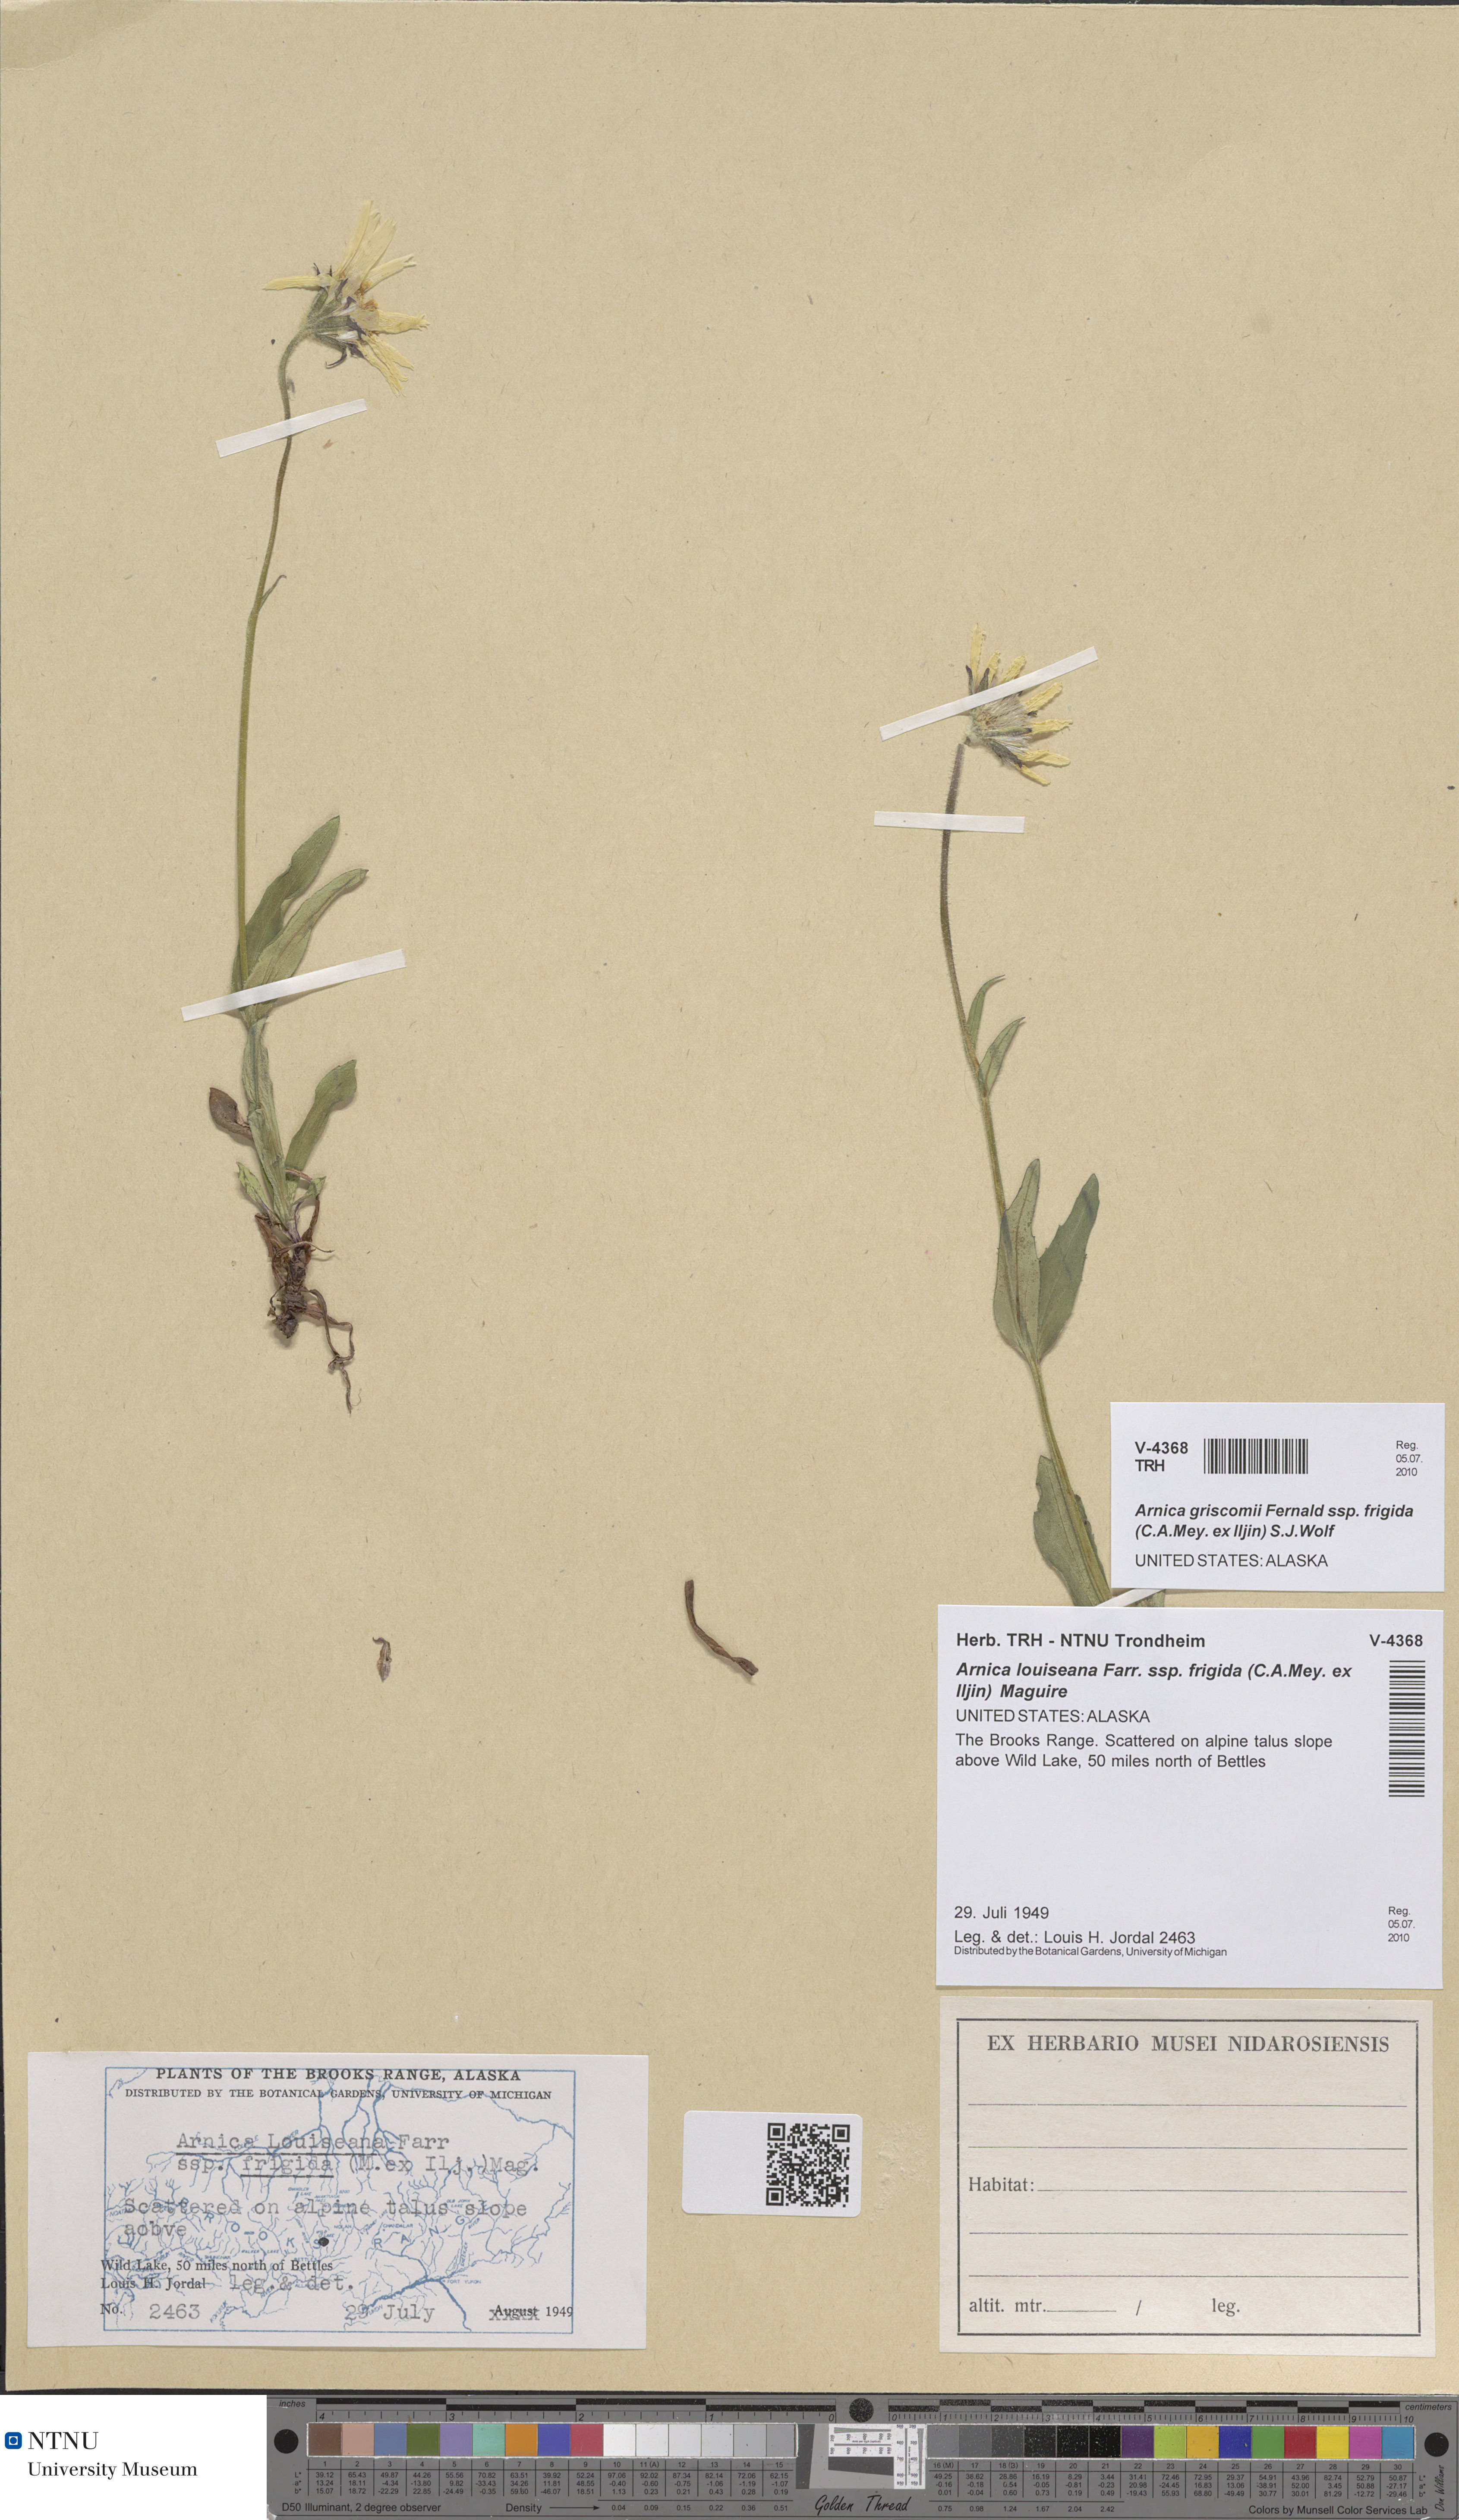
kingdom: Plantae
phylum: Tracheophyta
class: Magnoliopsida
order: Asterales
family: Asteraceae
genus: Arnica
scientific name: Arnica griscomii
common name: Snow arnica
